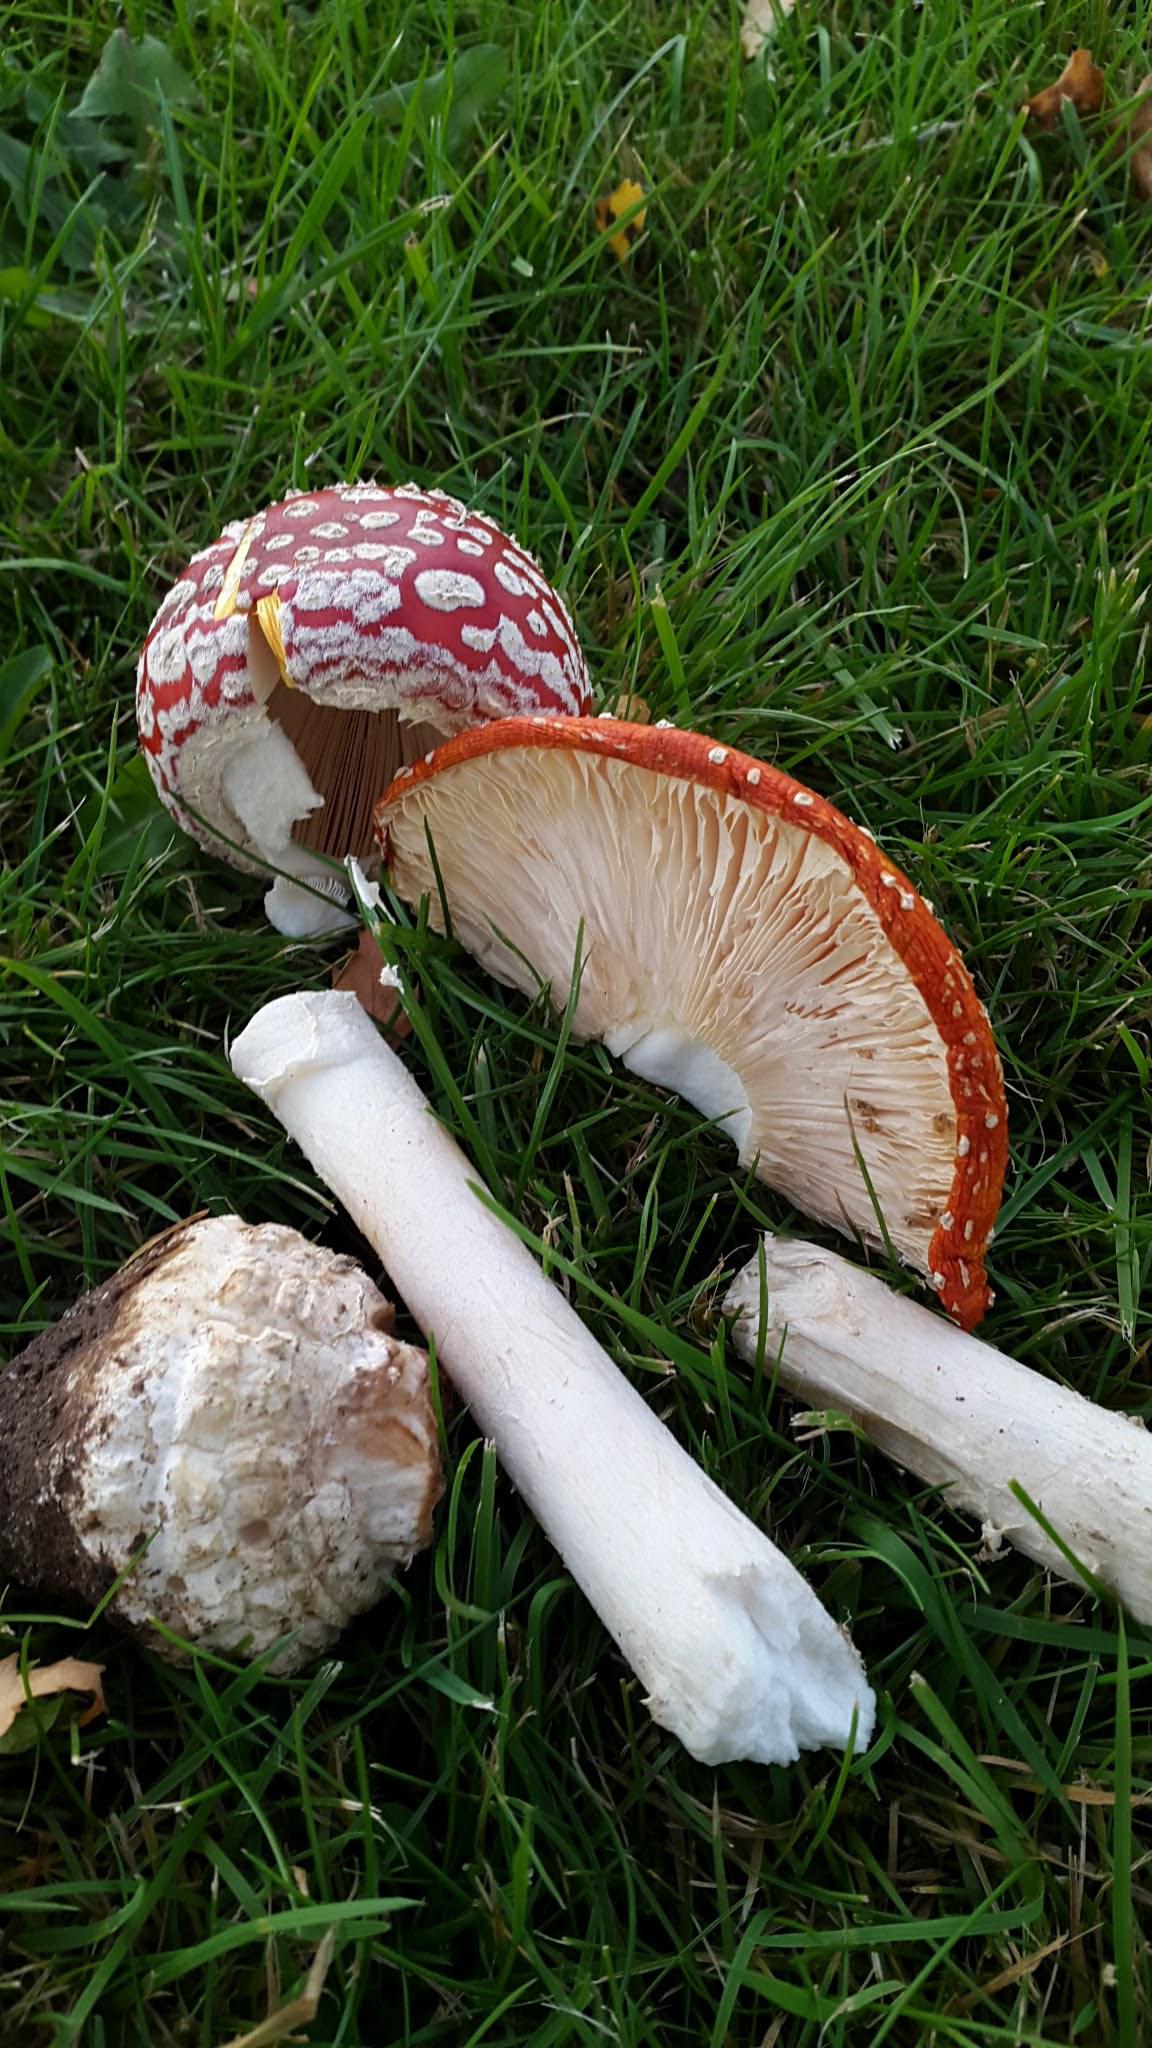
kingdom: Fungi
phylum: Basidiomycota
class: Agaricomycetes
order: Agaricales
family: Amanitaceae
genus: Amanita
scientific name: Amanita muscaria
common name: Rød fluesvamp
